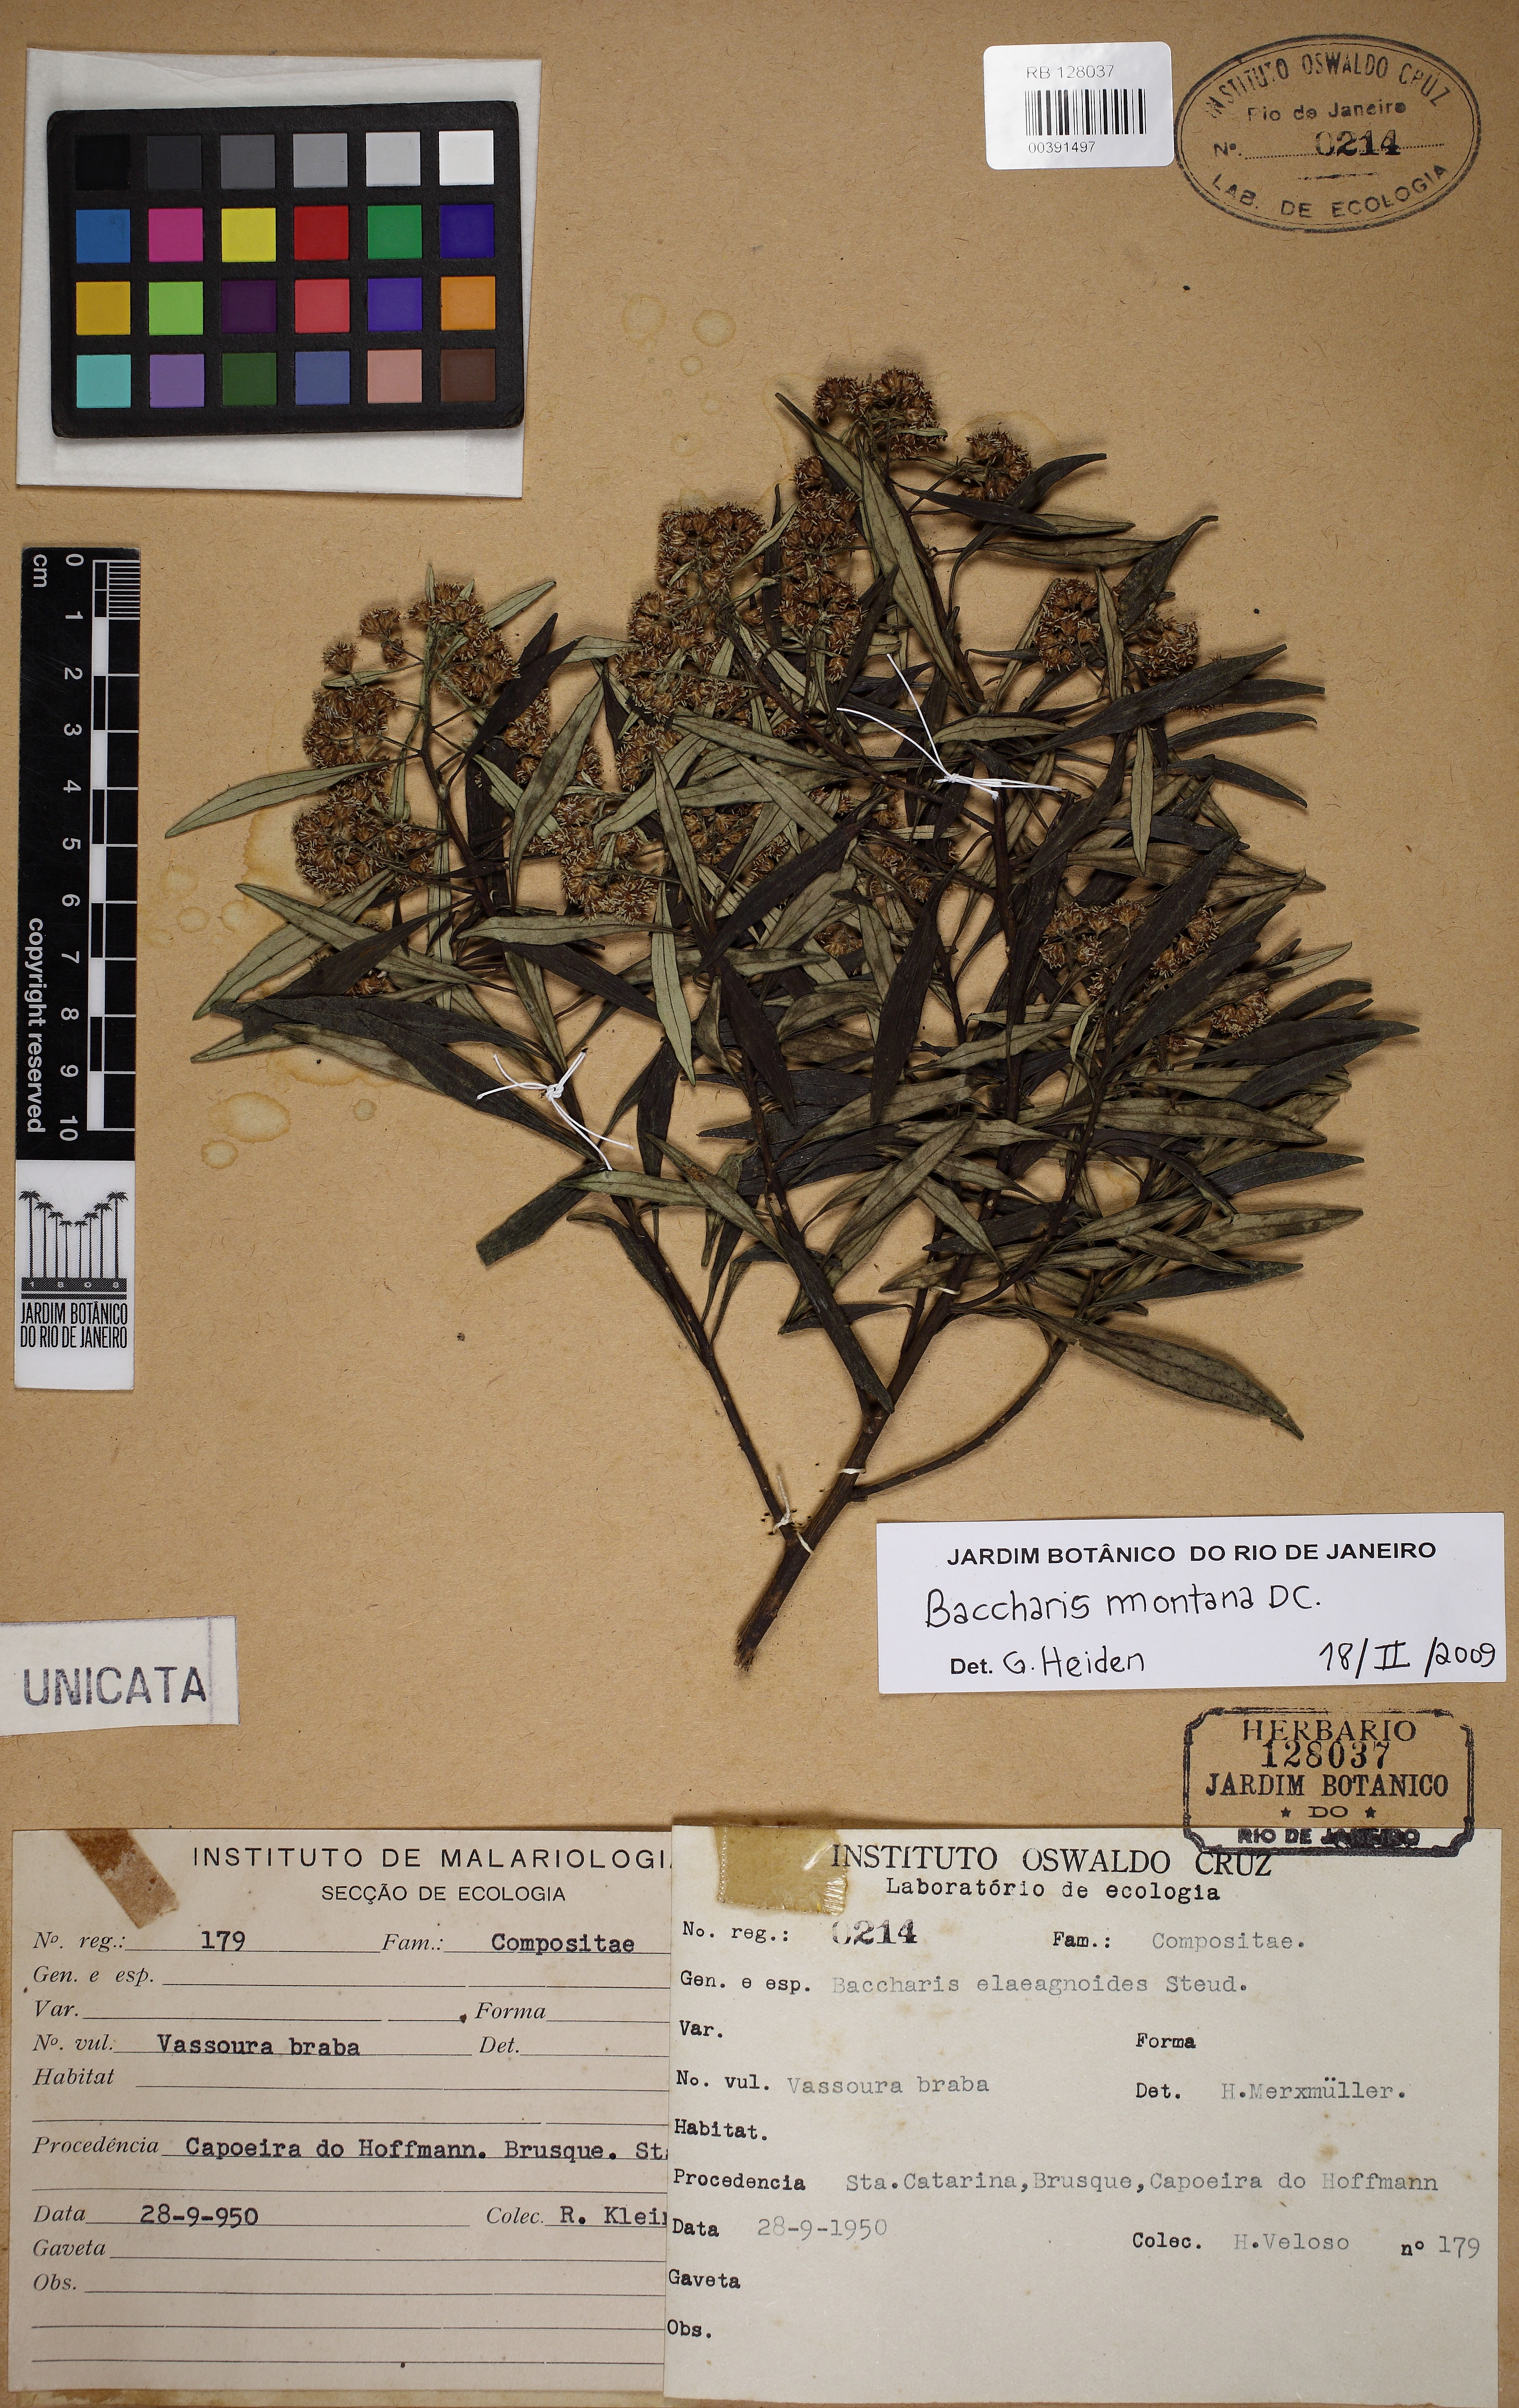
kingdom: Plantae
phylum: Tracheophyta
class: Magnoliopsida
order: Asterales
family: Asteraceae
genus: Baccharis
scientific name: Baccharis montana
